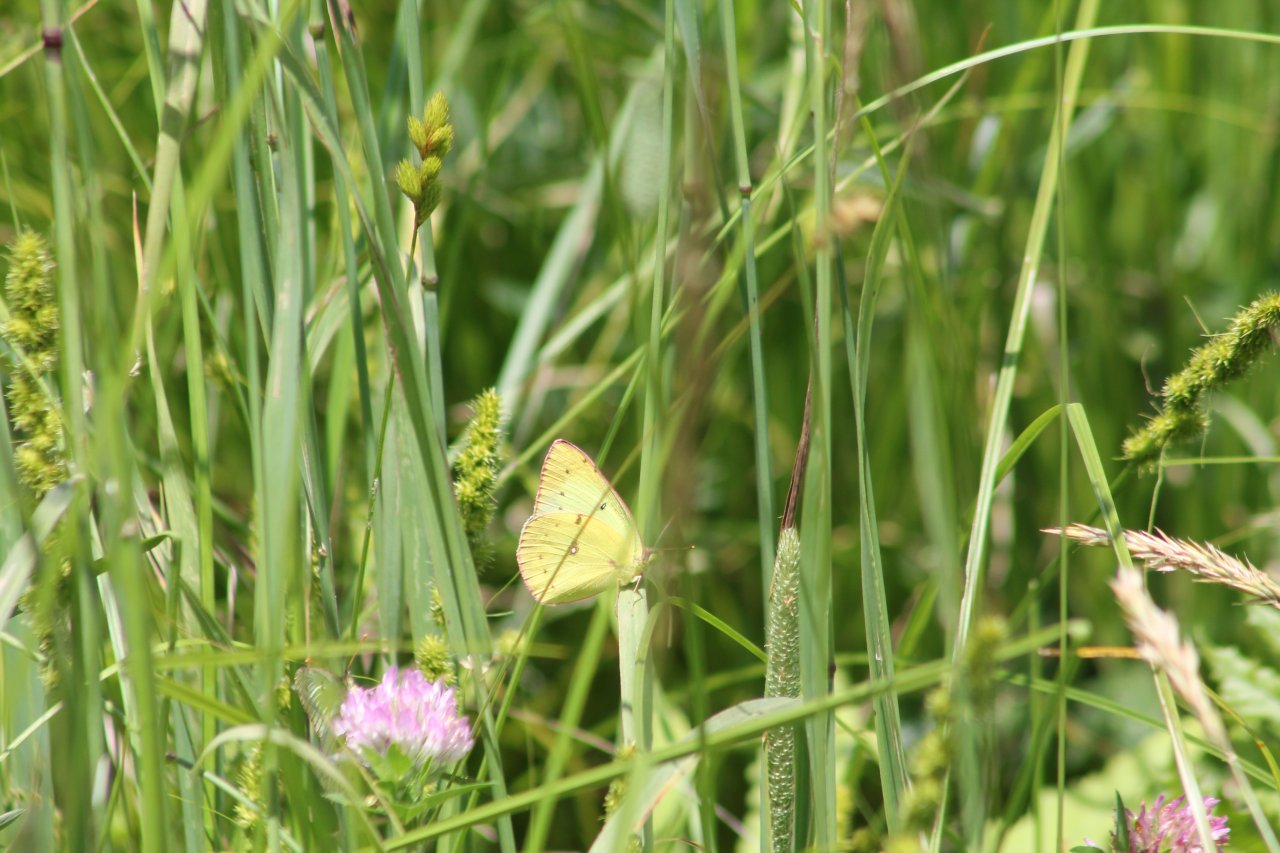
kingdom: Animalia
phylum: Arthropoda
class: Insecta
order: Lepidoptera
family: Pieridae
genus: Colias
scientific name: Colias philodice
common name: Clouded Sulphur
